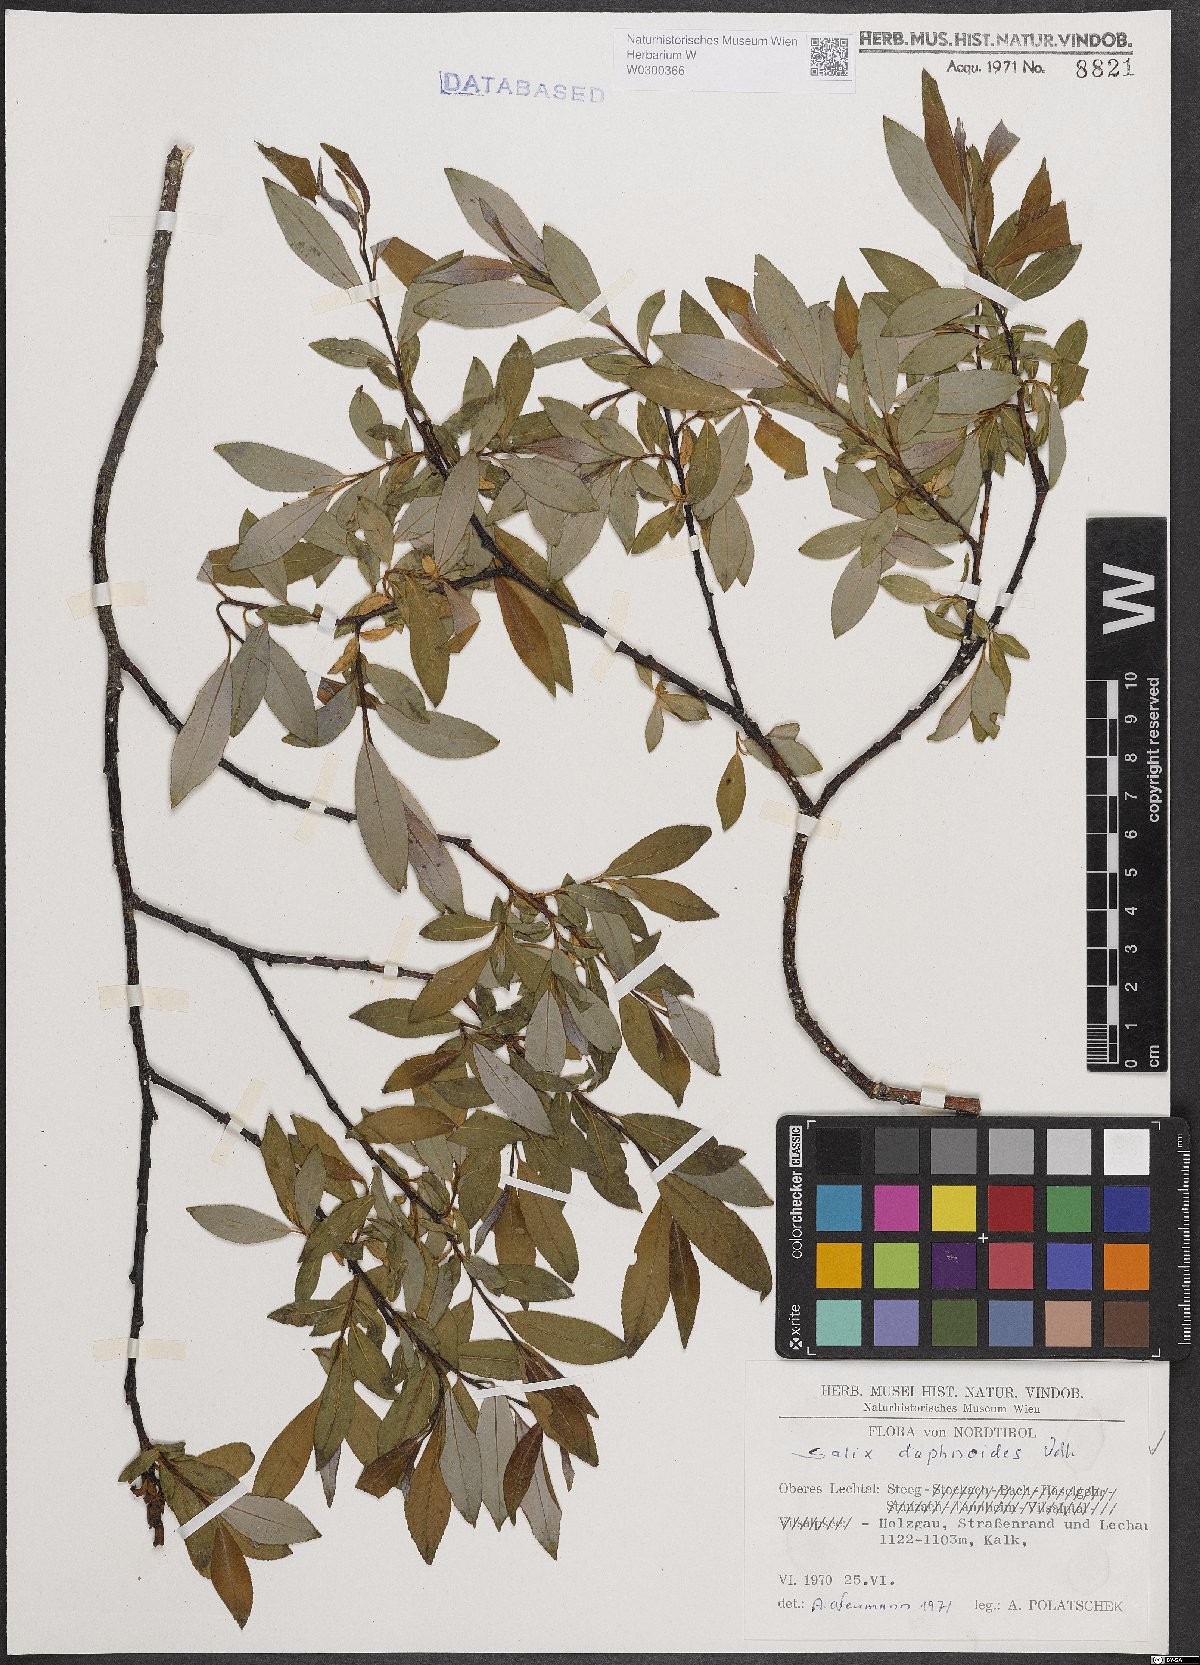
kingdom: Plantae
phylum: Tracheophyta
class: Magnoliopsida
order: Malpighiales
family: Salicaceae
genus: Salix
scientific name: Salix daphnoides
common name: European violet-willow
